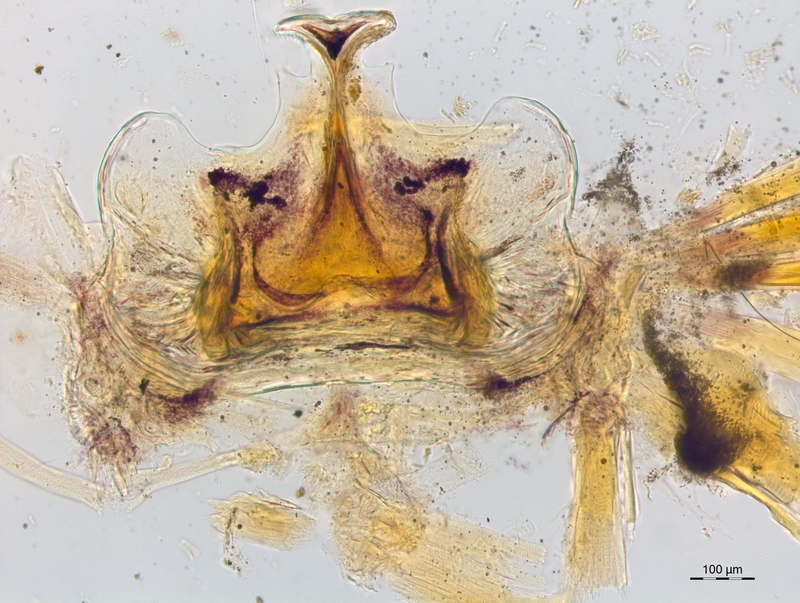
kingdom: Animalia
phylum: Arthropoda
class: Diplopoda
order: Chordeumatida
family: Craspedosomatidae
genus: Craspedosoma
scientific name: Craspedosoma doranum
